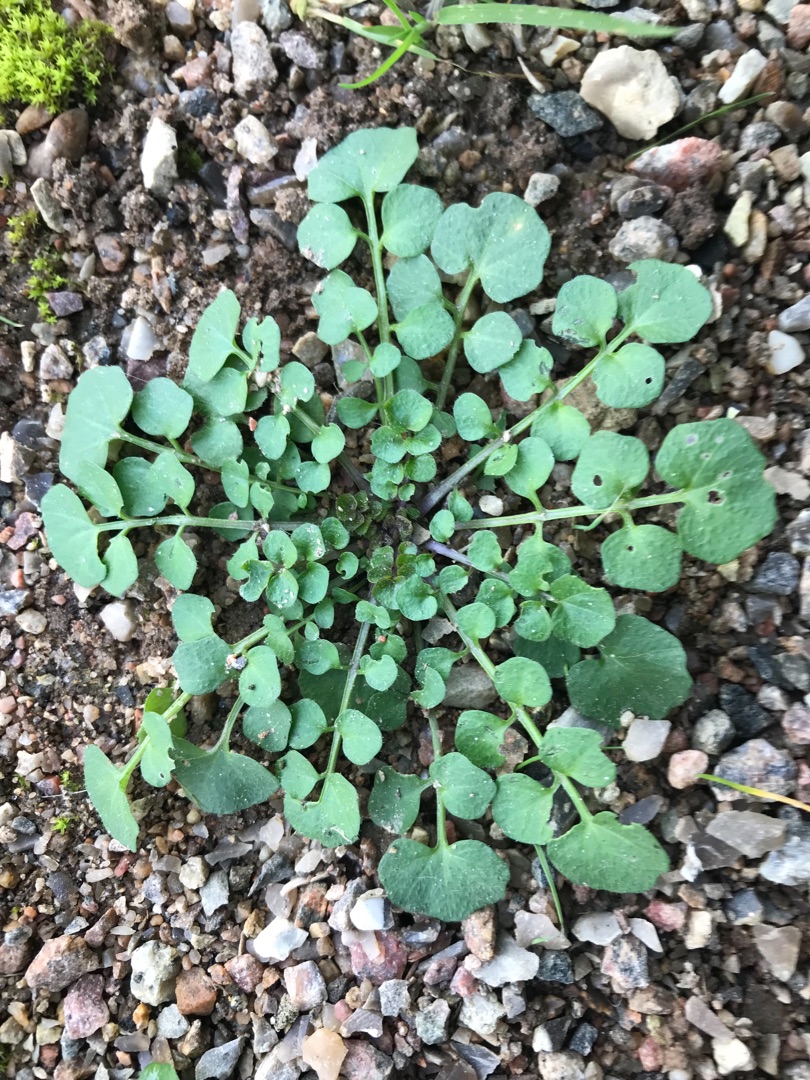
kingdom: Plantae
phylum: Tracheophyta
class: Magnoliopsida
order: Brassicales
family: Brassicaceae
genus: Cardamine
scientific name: Cardamine hirsuta
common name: Roset-springklap
